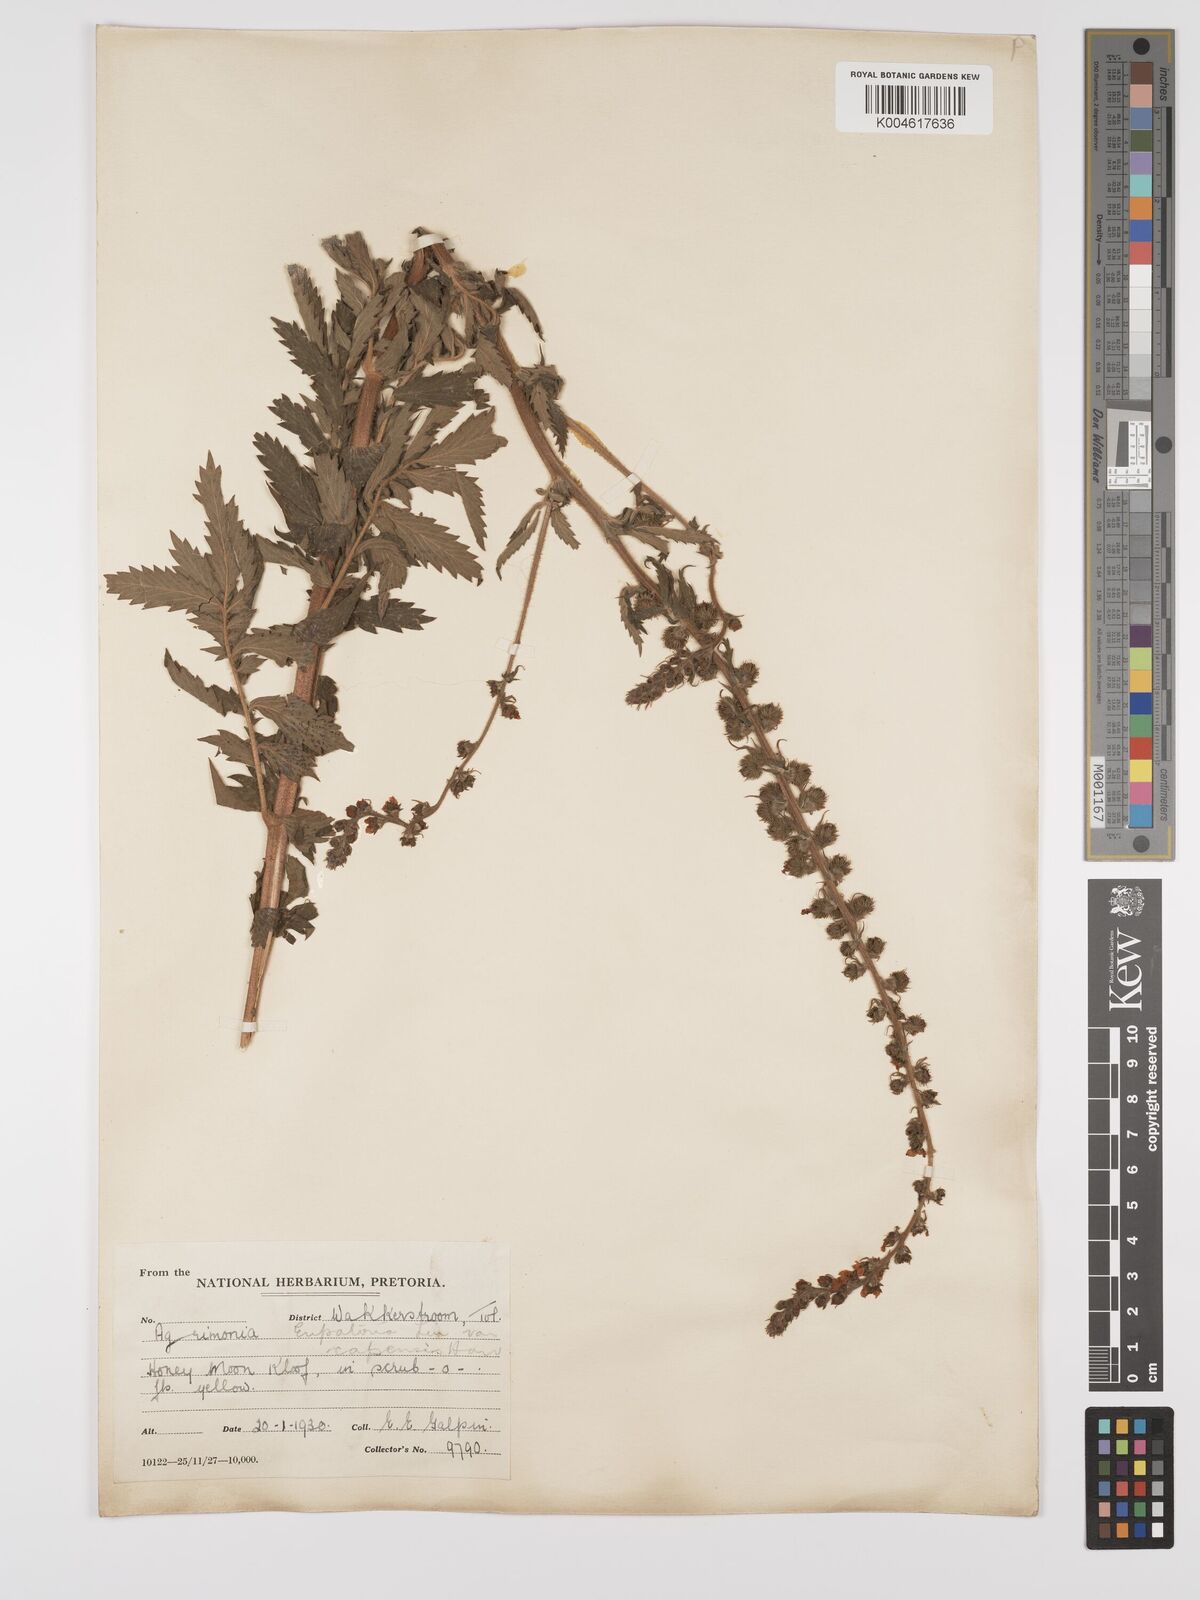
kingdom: Plantae
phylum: Tracheophyta
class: Magnoliopsida
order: Rosales
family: Rosaceae
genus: Agrimonia
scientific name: Agrimonia eupatoria
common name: Agrimony
